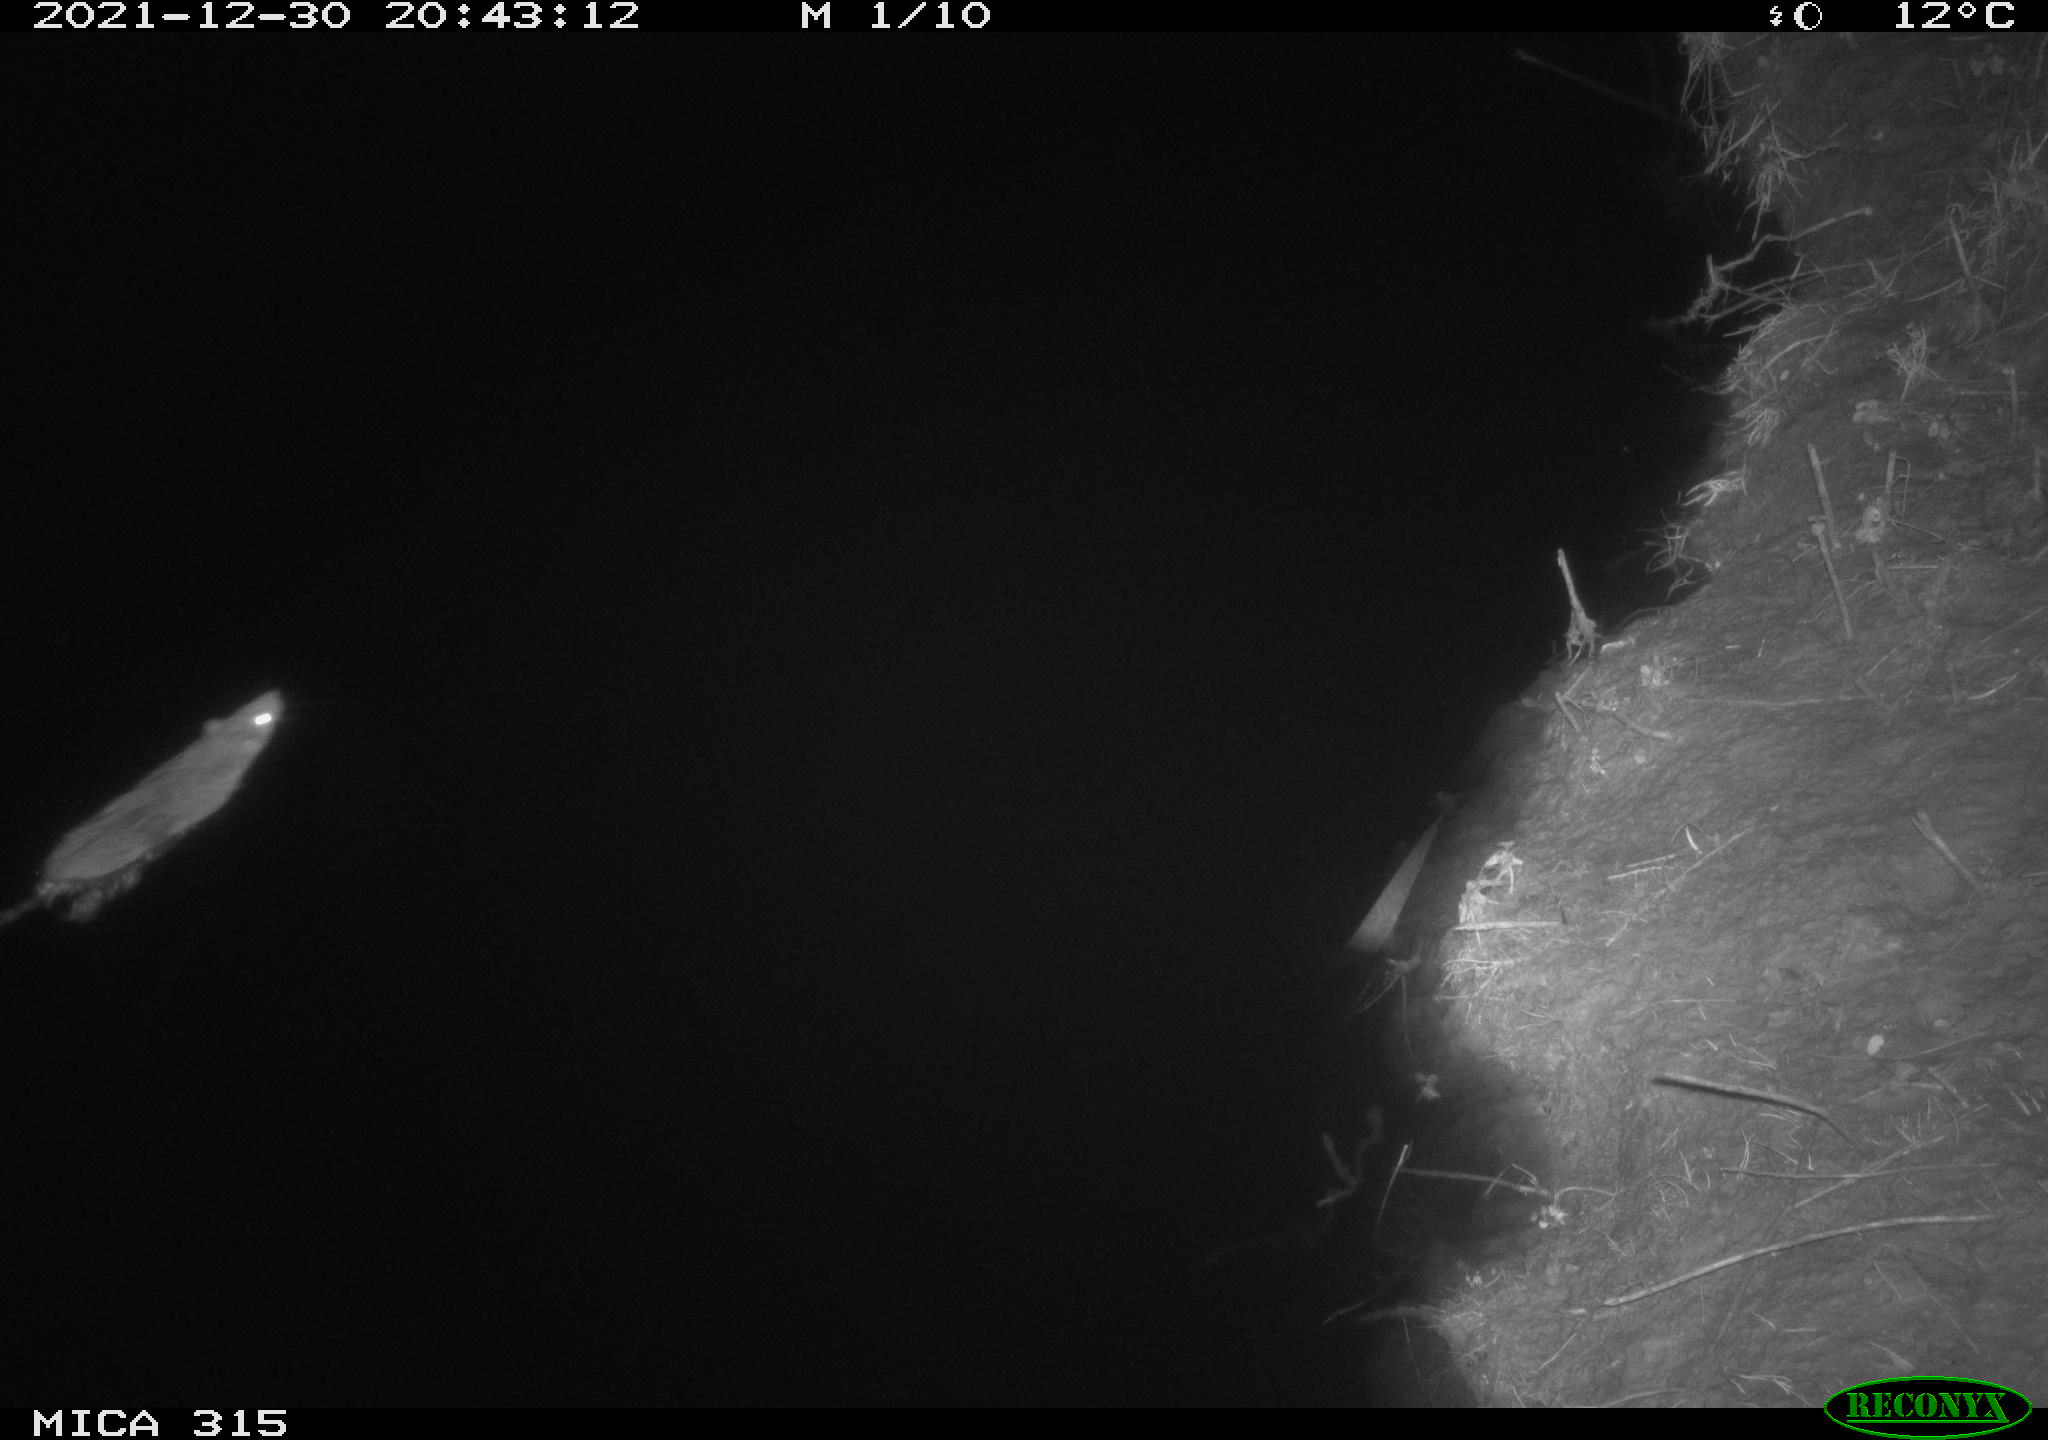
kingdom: Animalia
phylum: Chordata
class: Mammalia
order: Rodentia
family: Muridae
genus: Rattus
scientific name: Rattus norvegicus
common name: Brown rat
